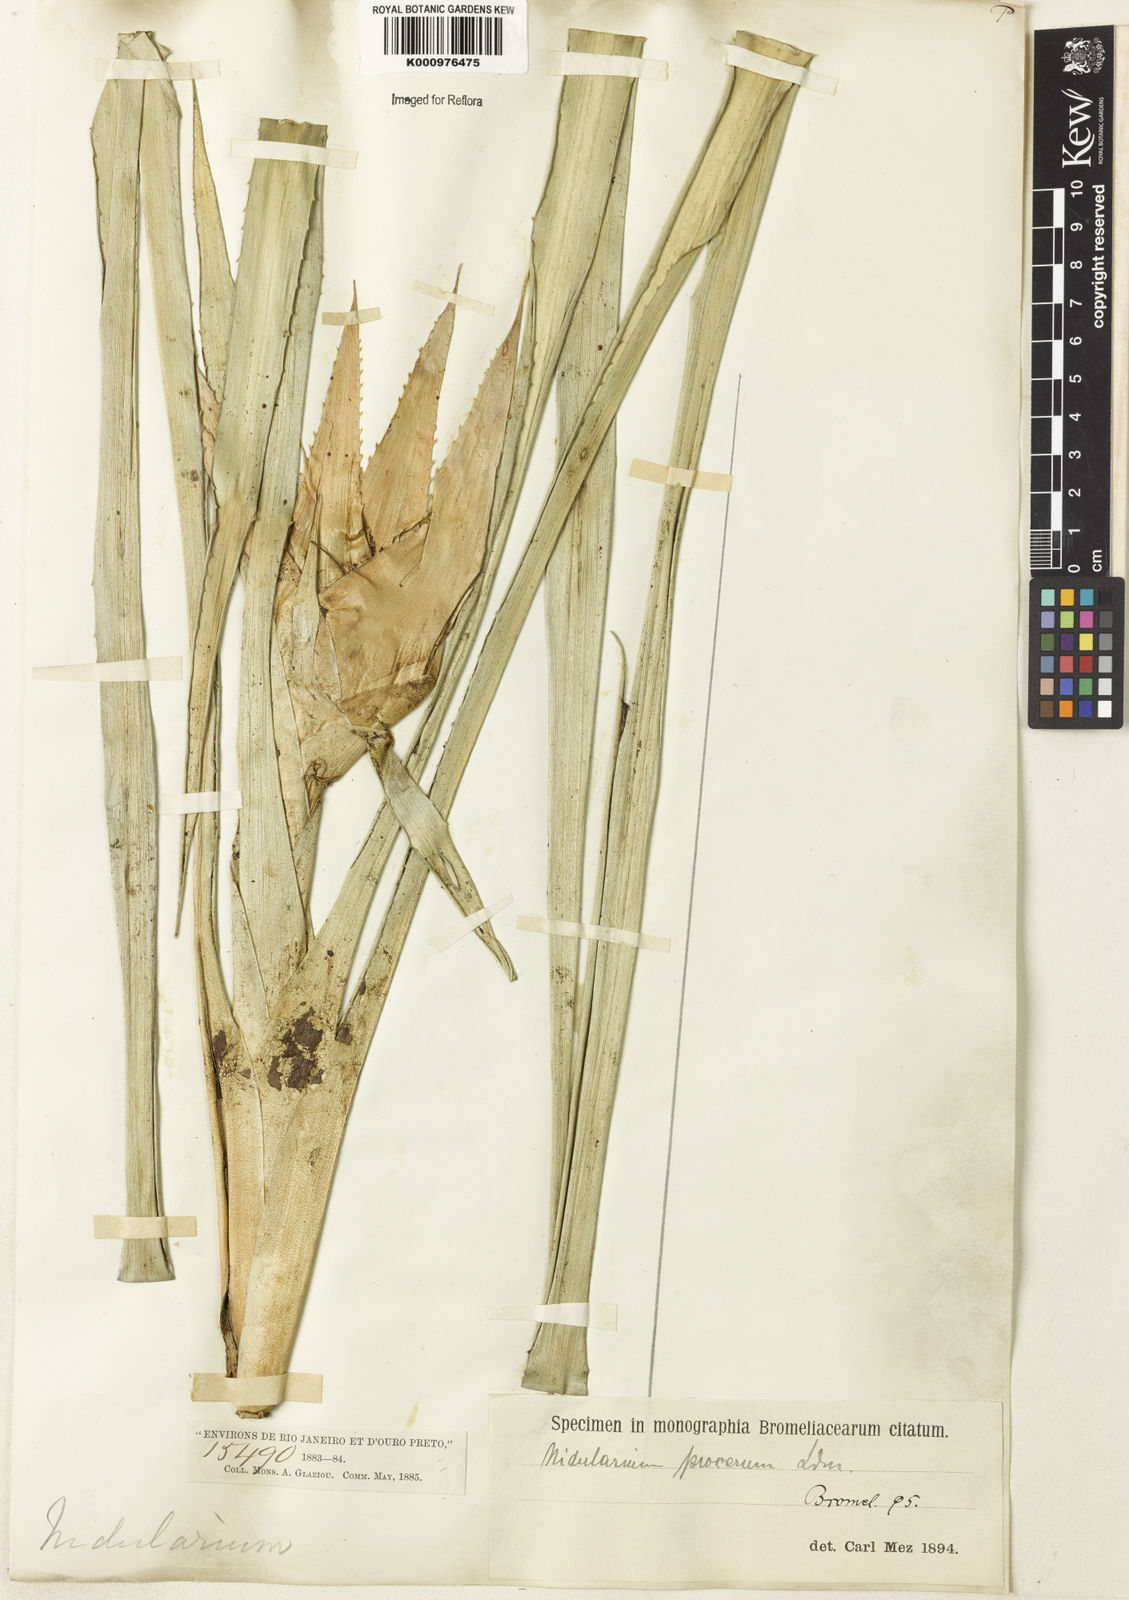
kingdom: Plantae
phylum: Tracheophyta
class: Liliopsida
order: Poales
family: Bromeliaceae
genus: Nidularium
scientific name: Nidularium procerum
